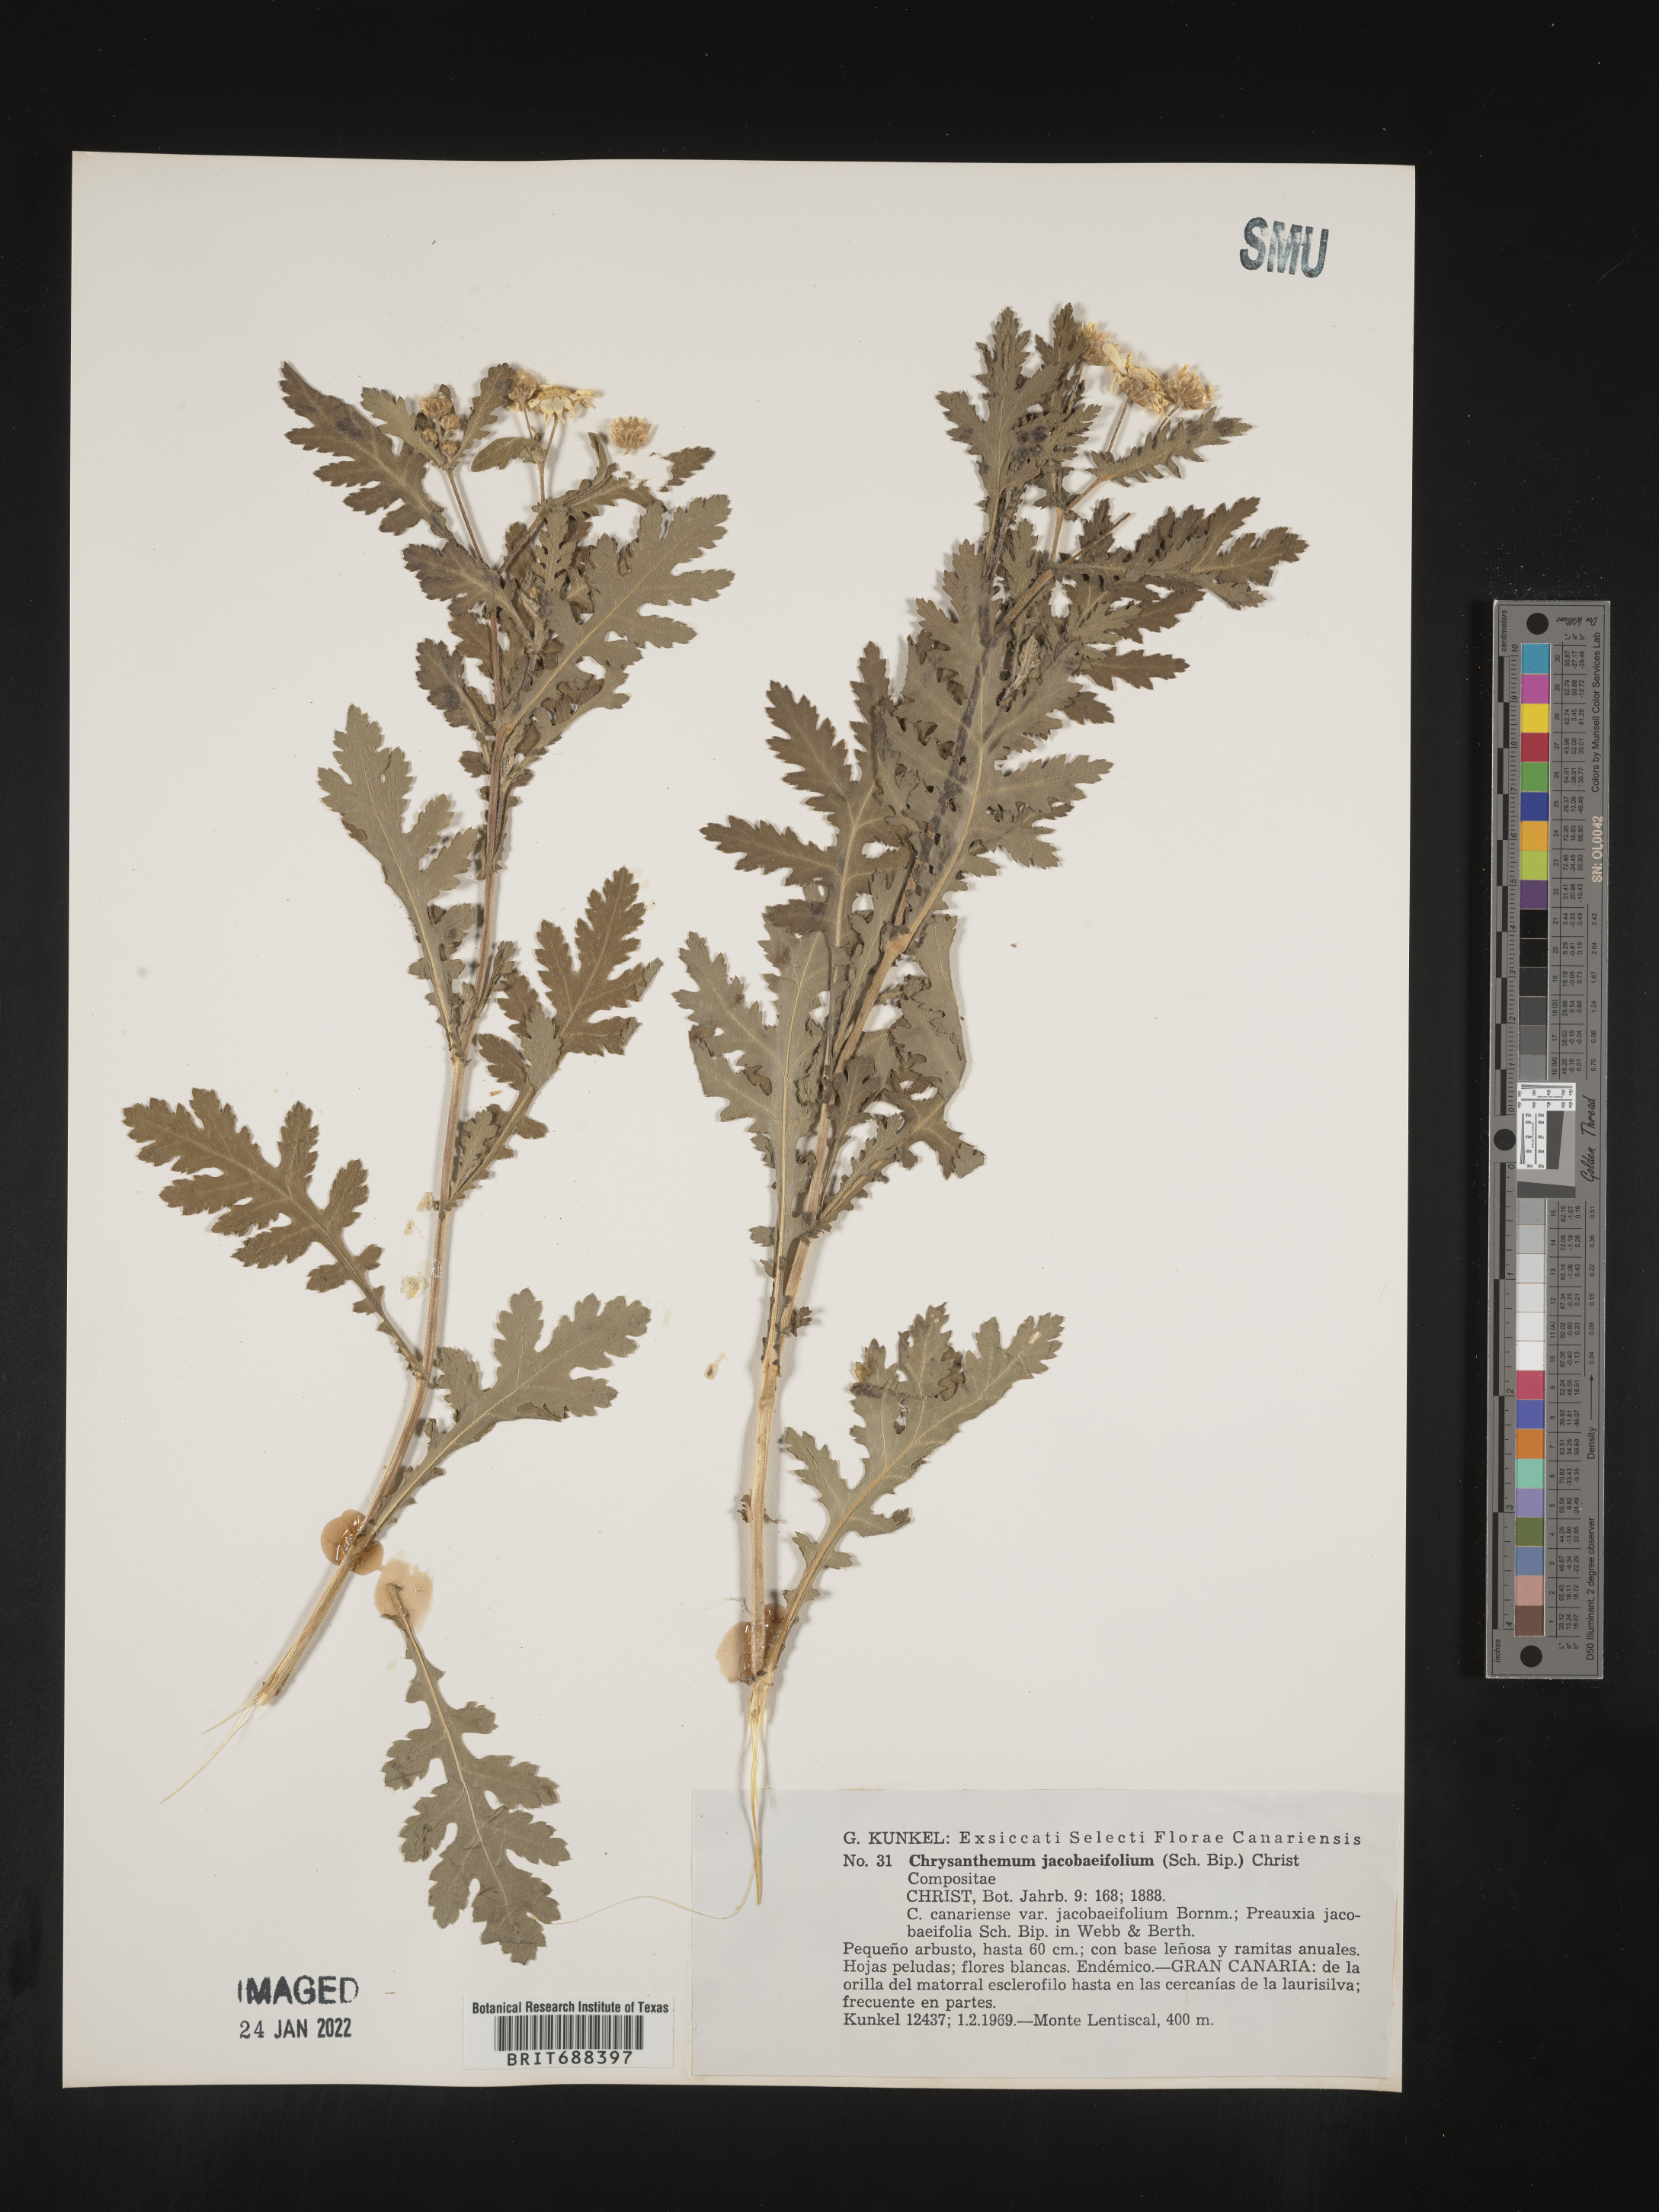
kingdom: Plantae
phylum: Tracheophyta
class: Magnoliopsida
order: Asterales
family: Asteraceae
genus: Chrysanthemum
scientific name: Chrysanthemum
